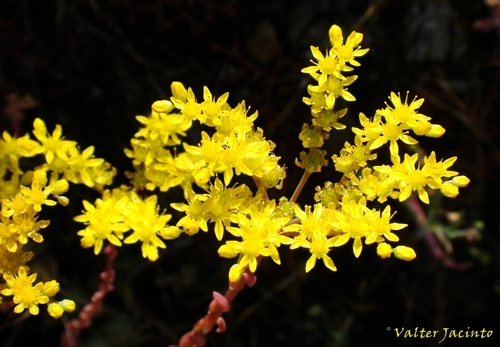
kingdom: Plantae
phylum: Tracheophyta
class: Magnoliopsida
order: Saxifragales
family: Crassulaceae
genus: Petrosedum
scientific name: Petrosedum sediforme
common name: Pale stonecrop
